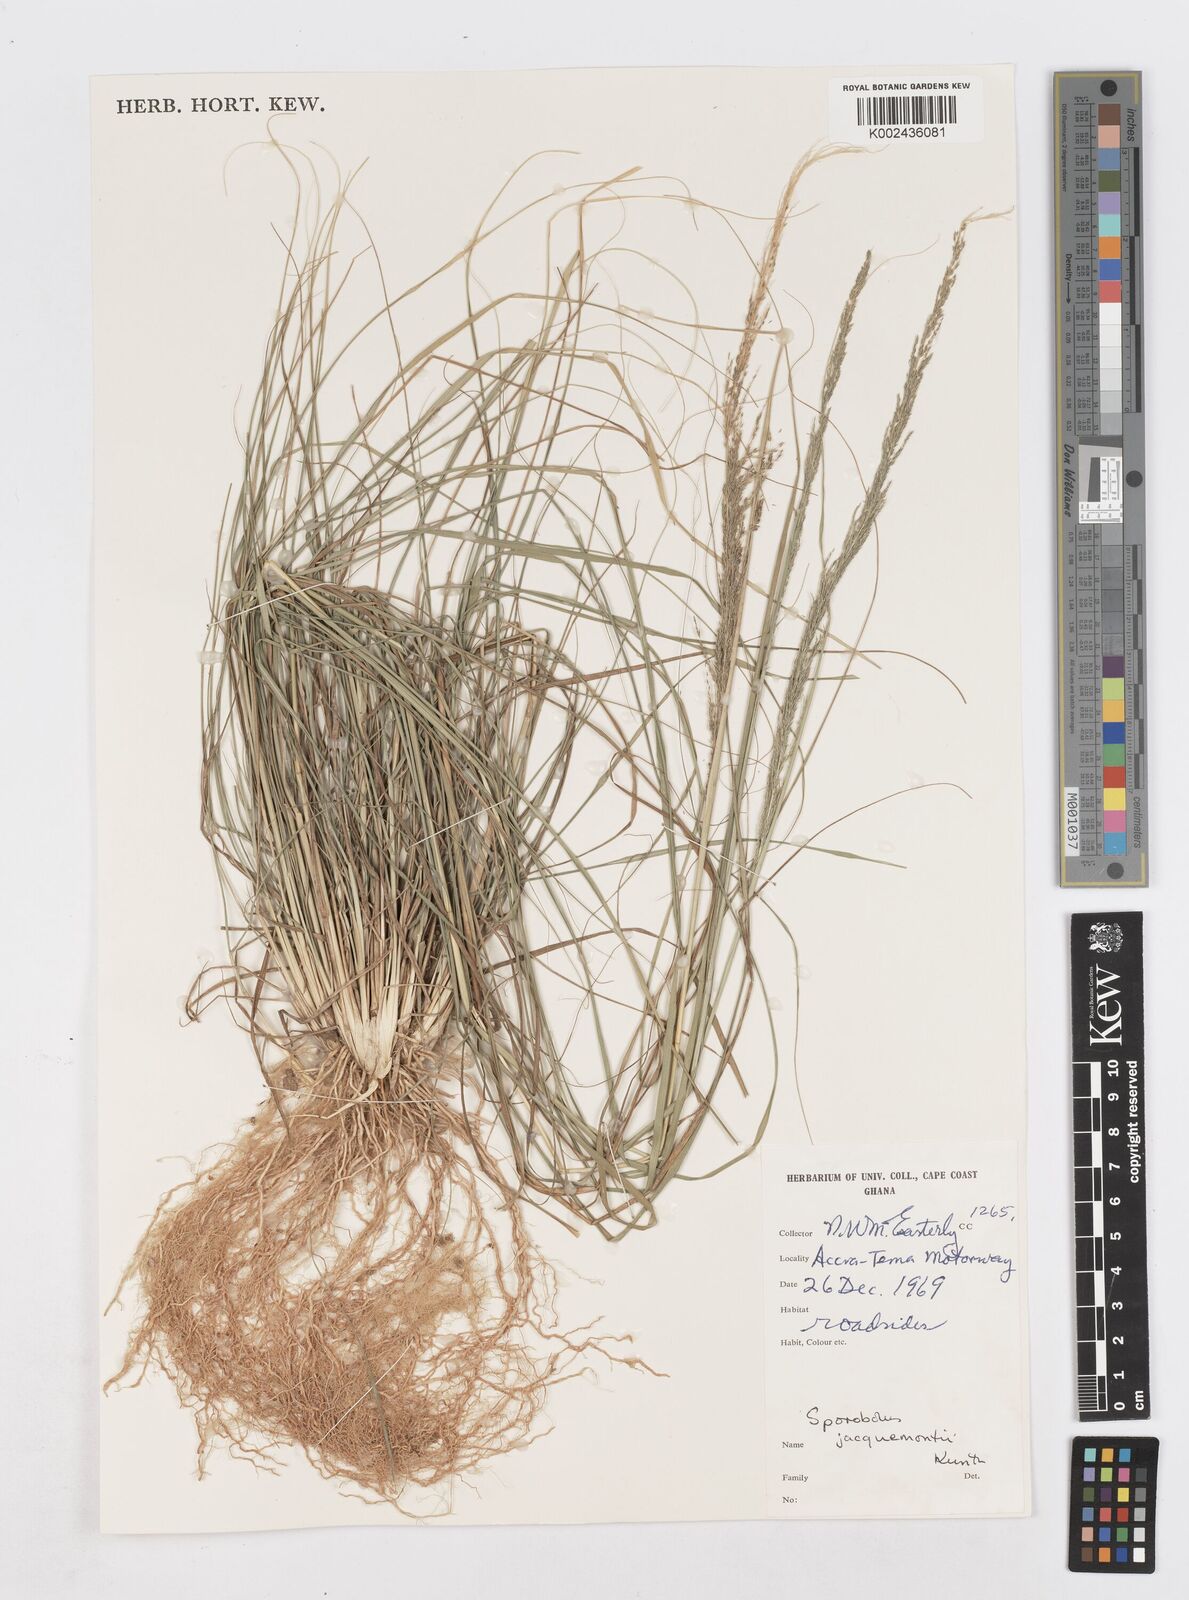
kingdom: Plantae
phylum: Tracheophyta
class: Liliopsida
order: Poales
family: Poaceae
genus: Sporobolus
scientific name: Sporobolus pyramidalis
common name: West indian dropseed
